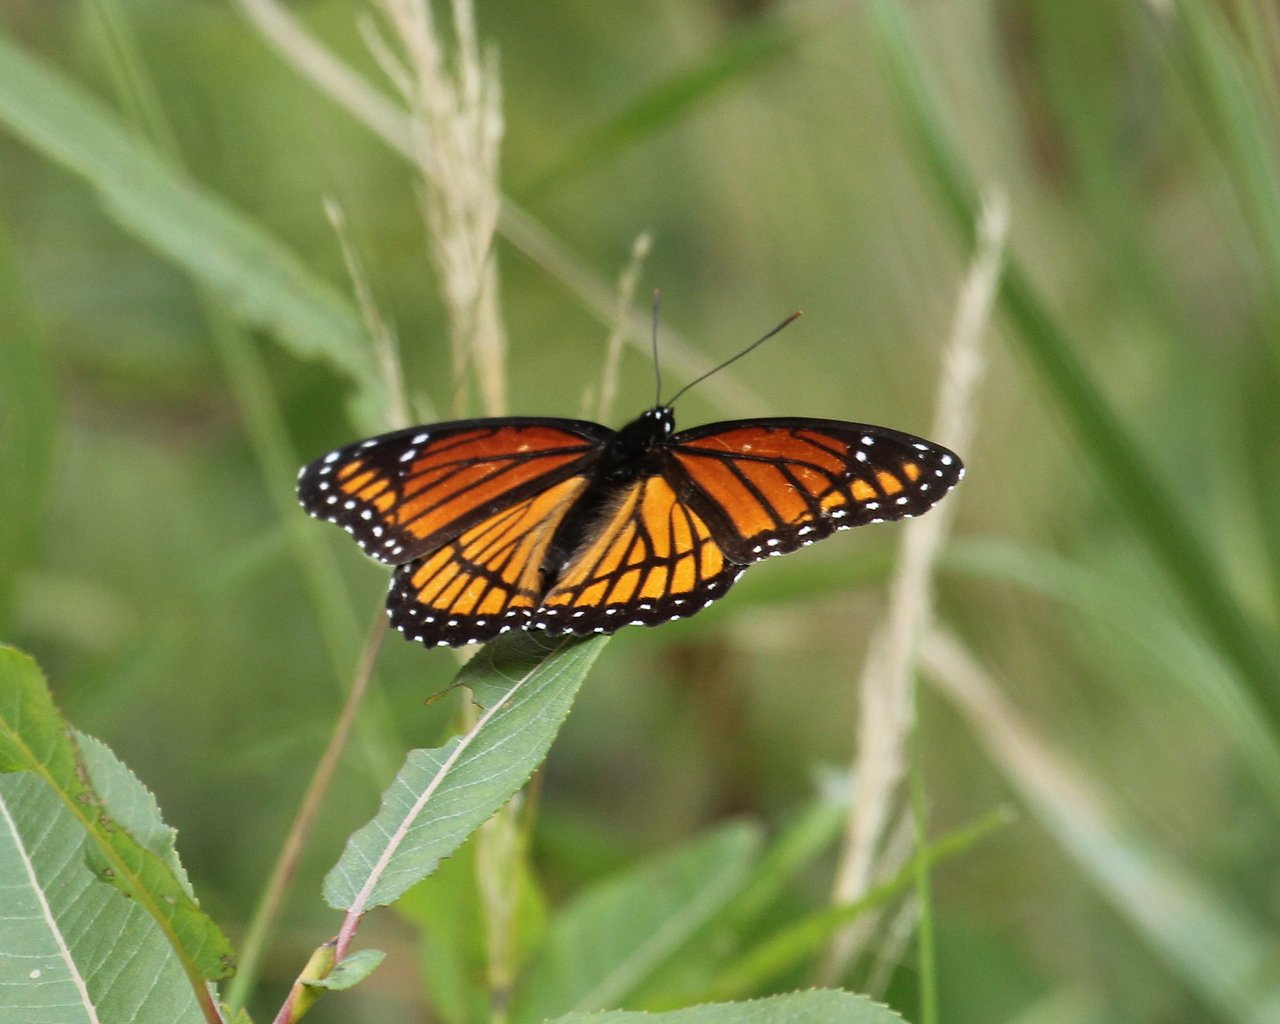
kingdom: Animalia
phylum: Arthropoda
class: Insecta
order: Lepidoptera
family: Nymphalidae
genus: Limenitis
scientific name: Limenitis archippus
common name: Viceroy
